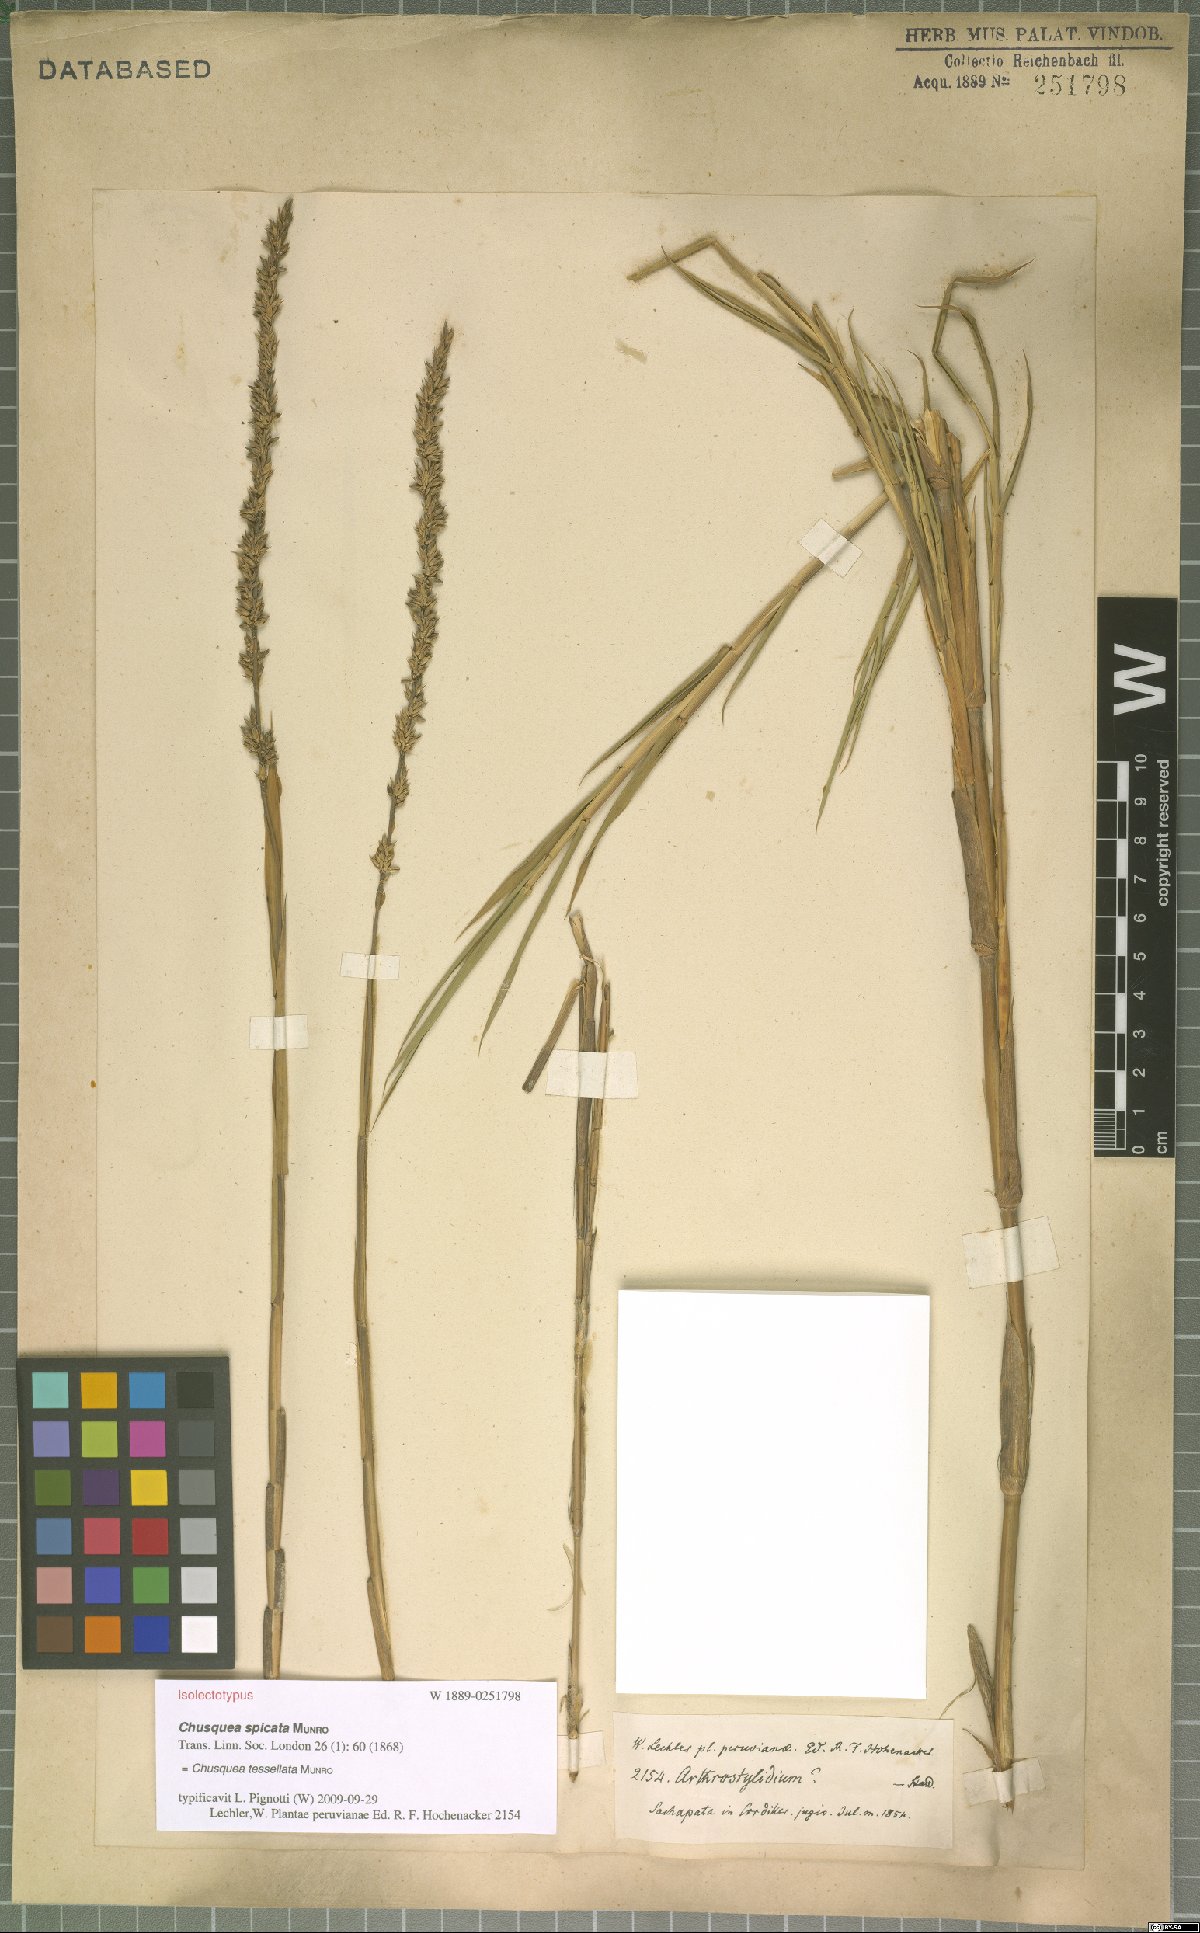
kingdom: Plantae
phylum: Tracheophyta
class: Liliopsida
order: Poales
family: Poaceae
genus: Chusquea
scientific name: Chusquea tessellata
